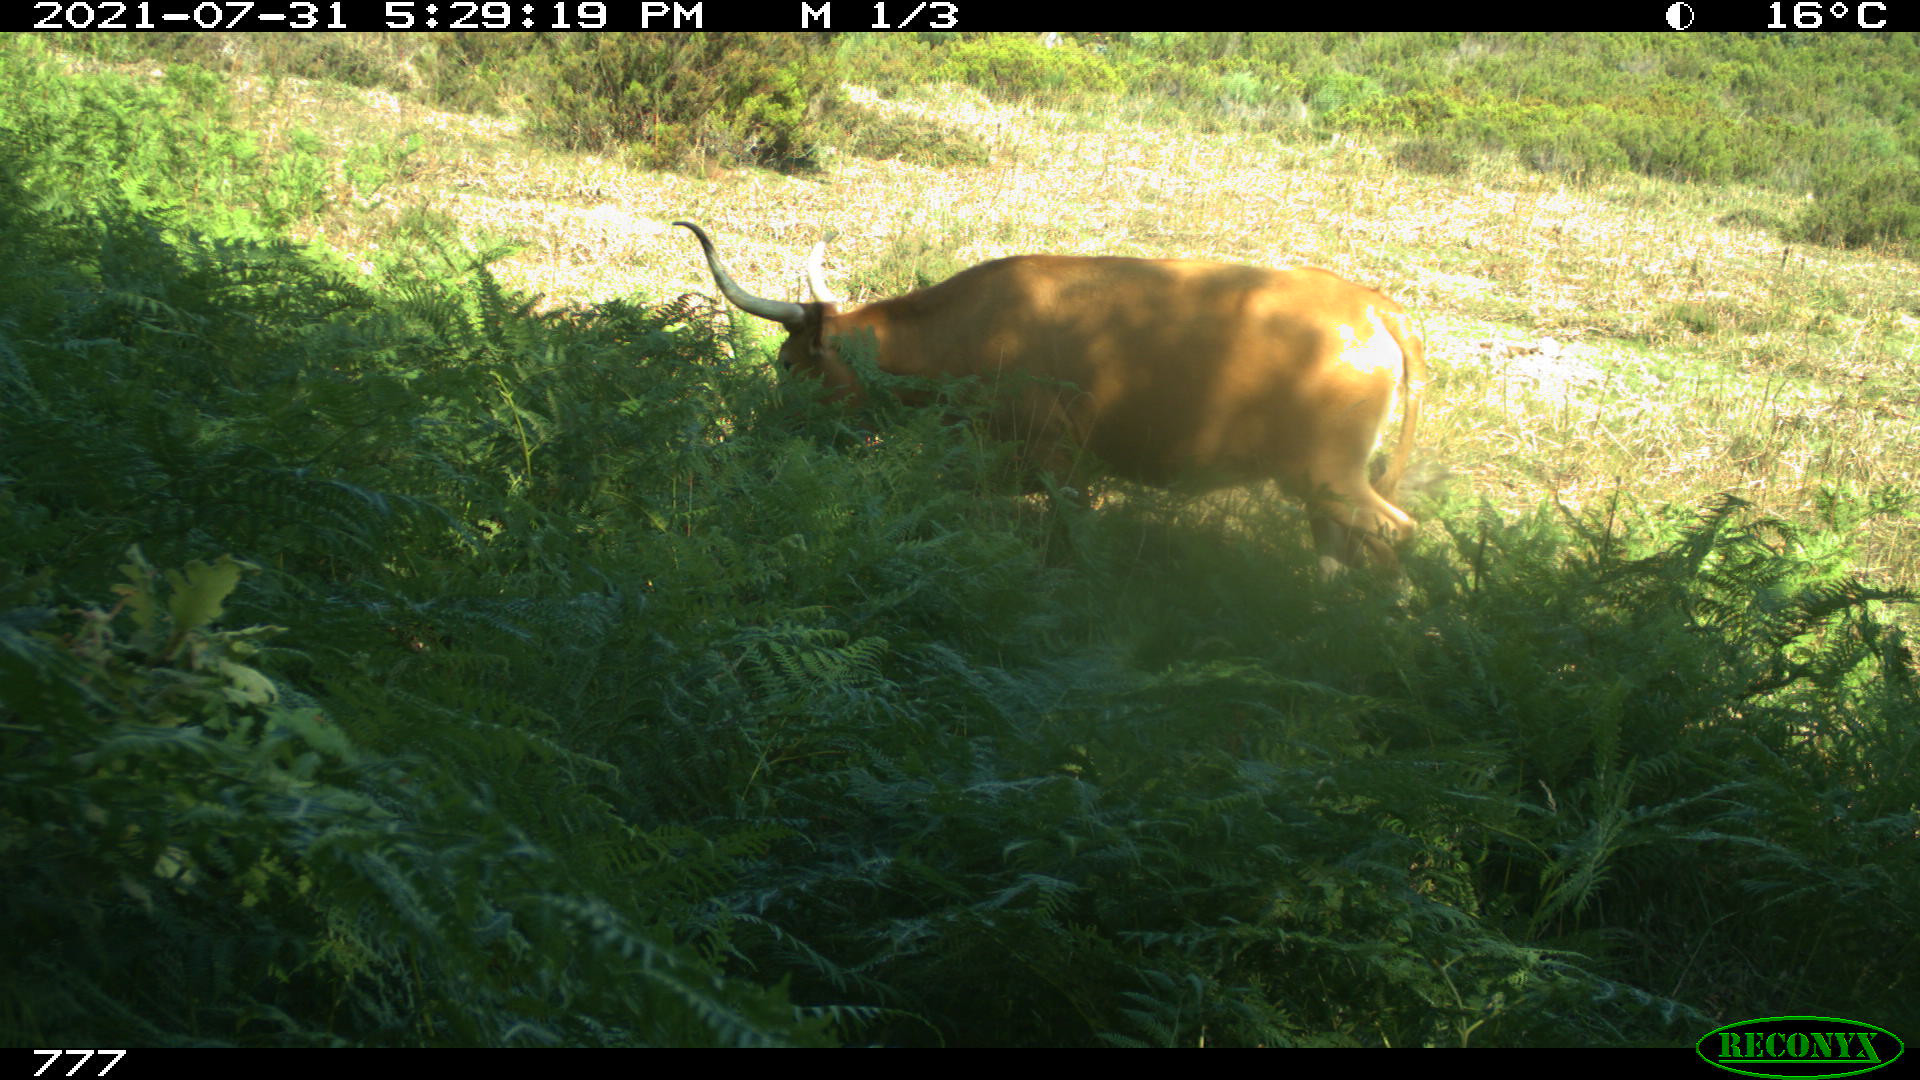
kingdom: Animalia
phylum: Chordata
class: Mammalia
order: Artiodactyla
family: Bovidae
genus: Bos
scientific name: Bos taurus
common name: Domesticated cattle
